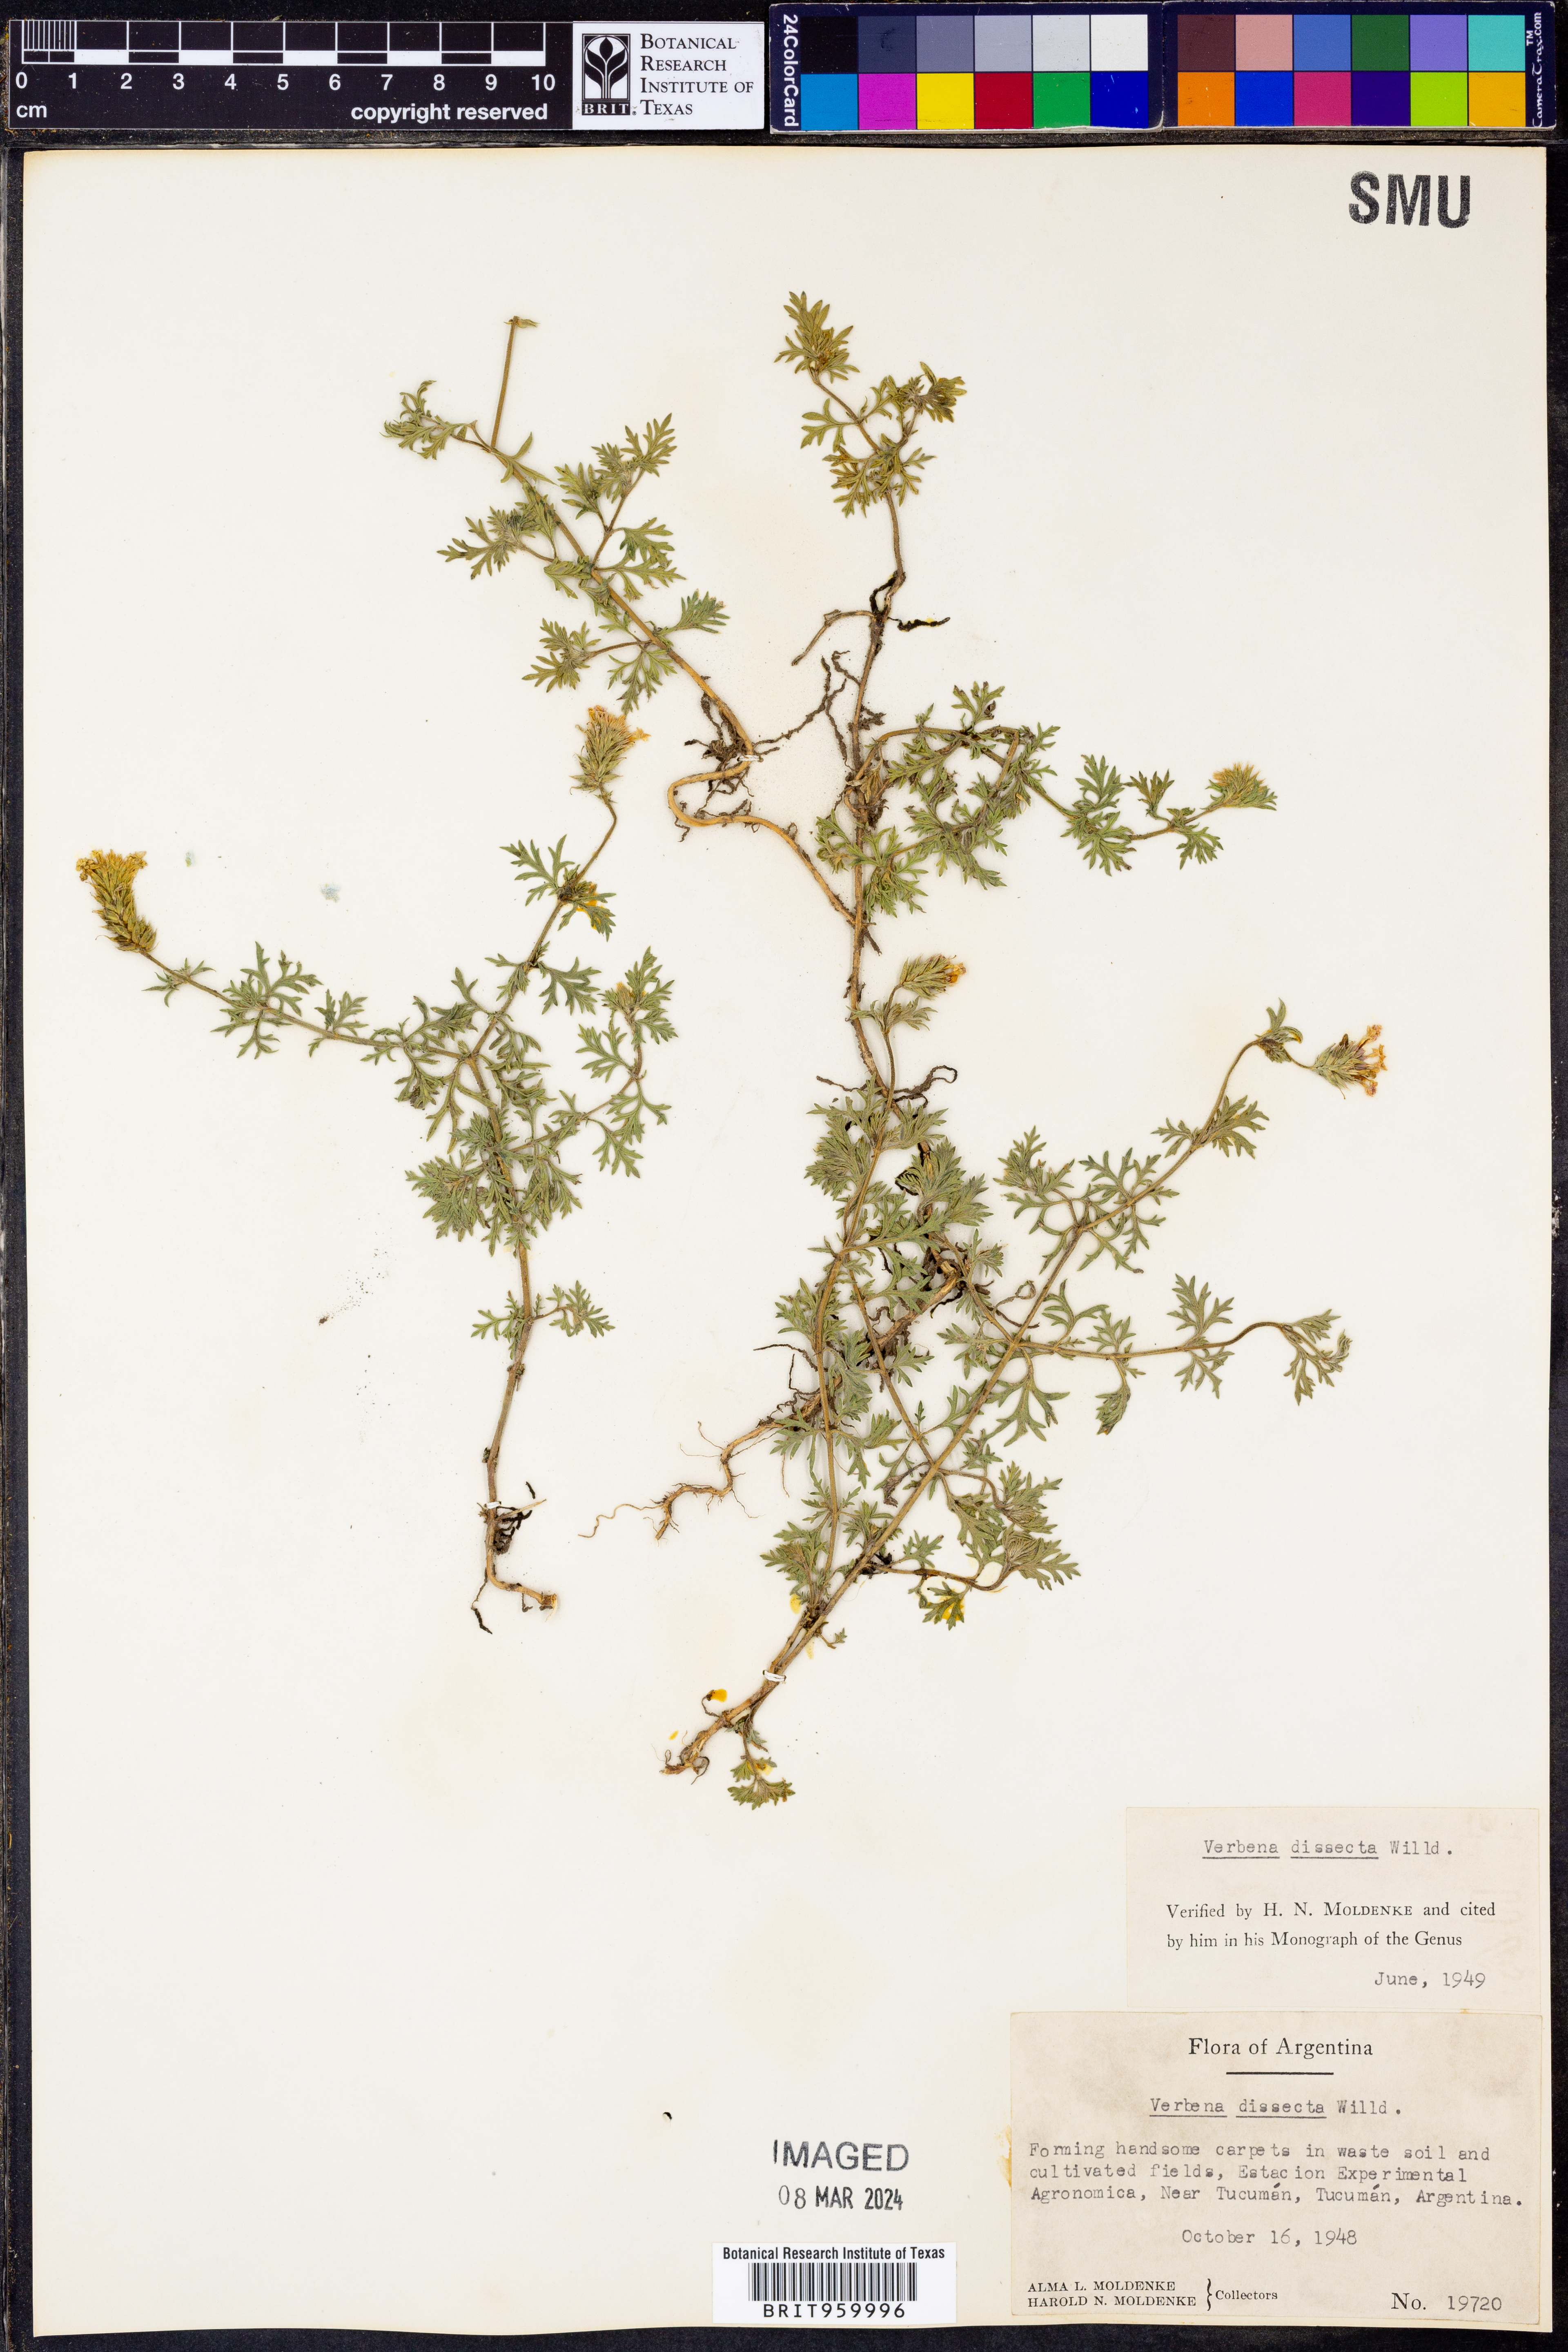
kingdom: Plantae
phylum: Tracheophyta
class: Magnoliopsida
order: Lamiales
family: Verbenaceae
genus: Verbena
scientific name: Verbena
